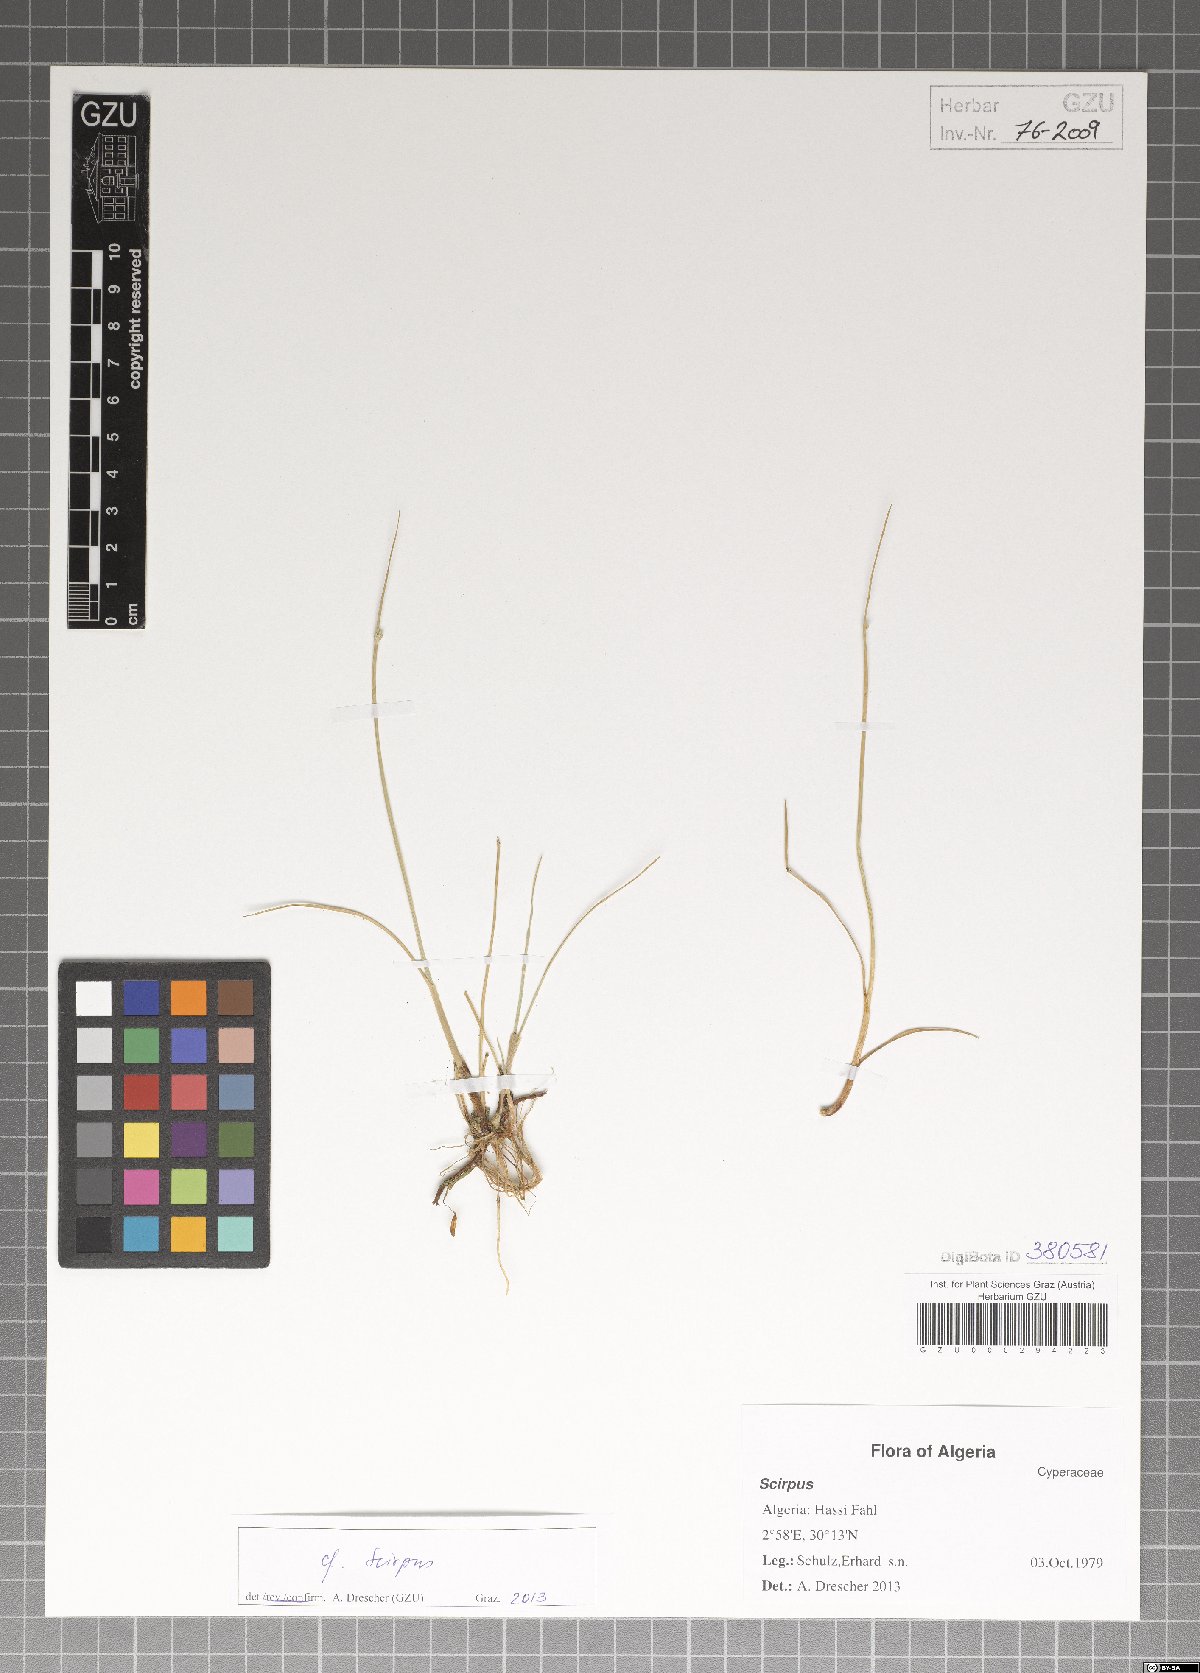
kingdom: Plantae
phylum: Tracheophyta
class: Liliopsida
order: Poales
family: Cyperaceae
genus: Scirpus
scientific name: Scirpus
